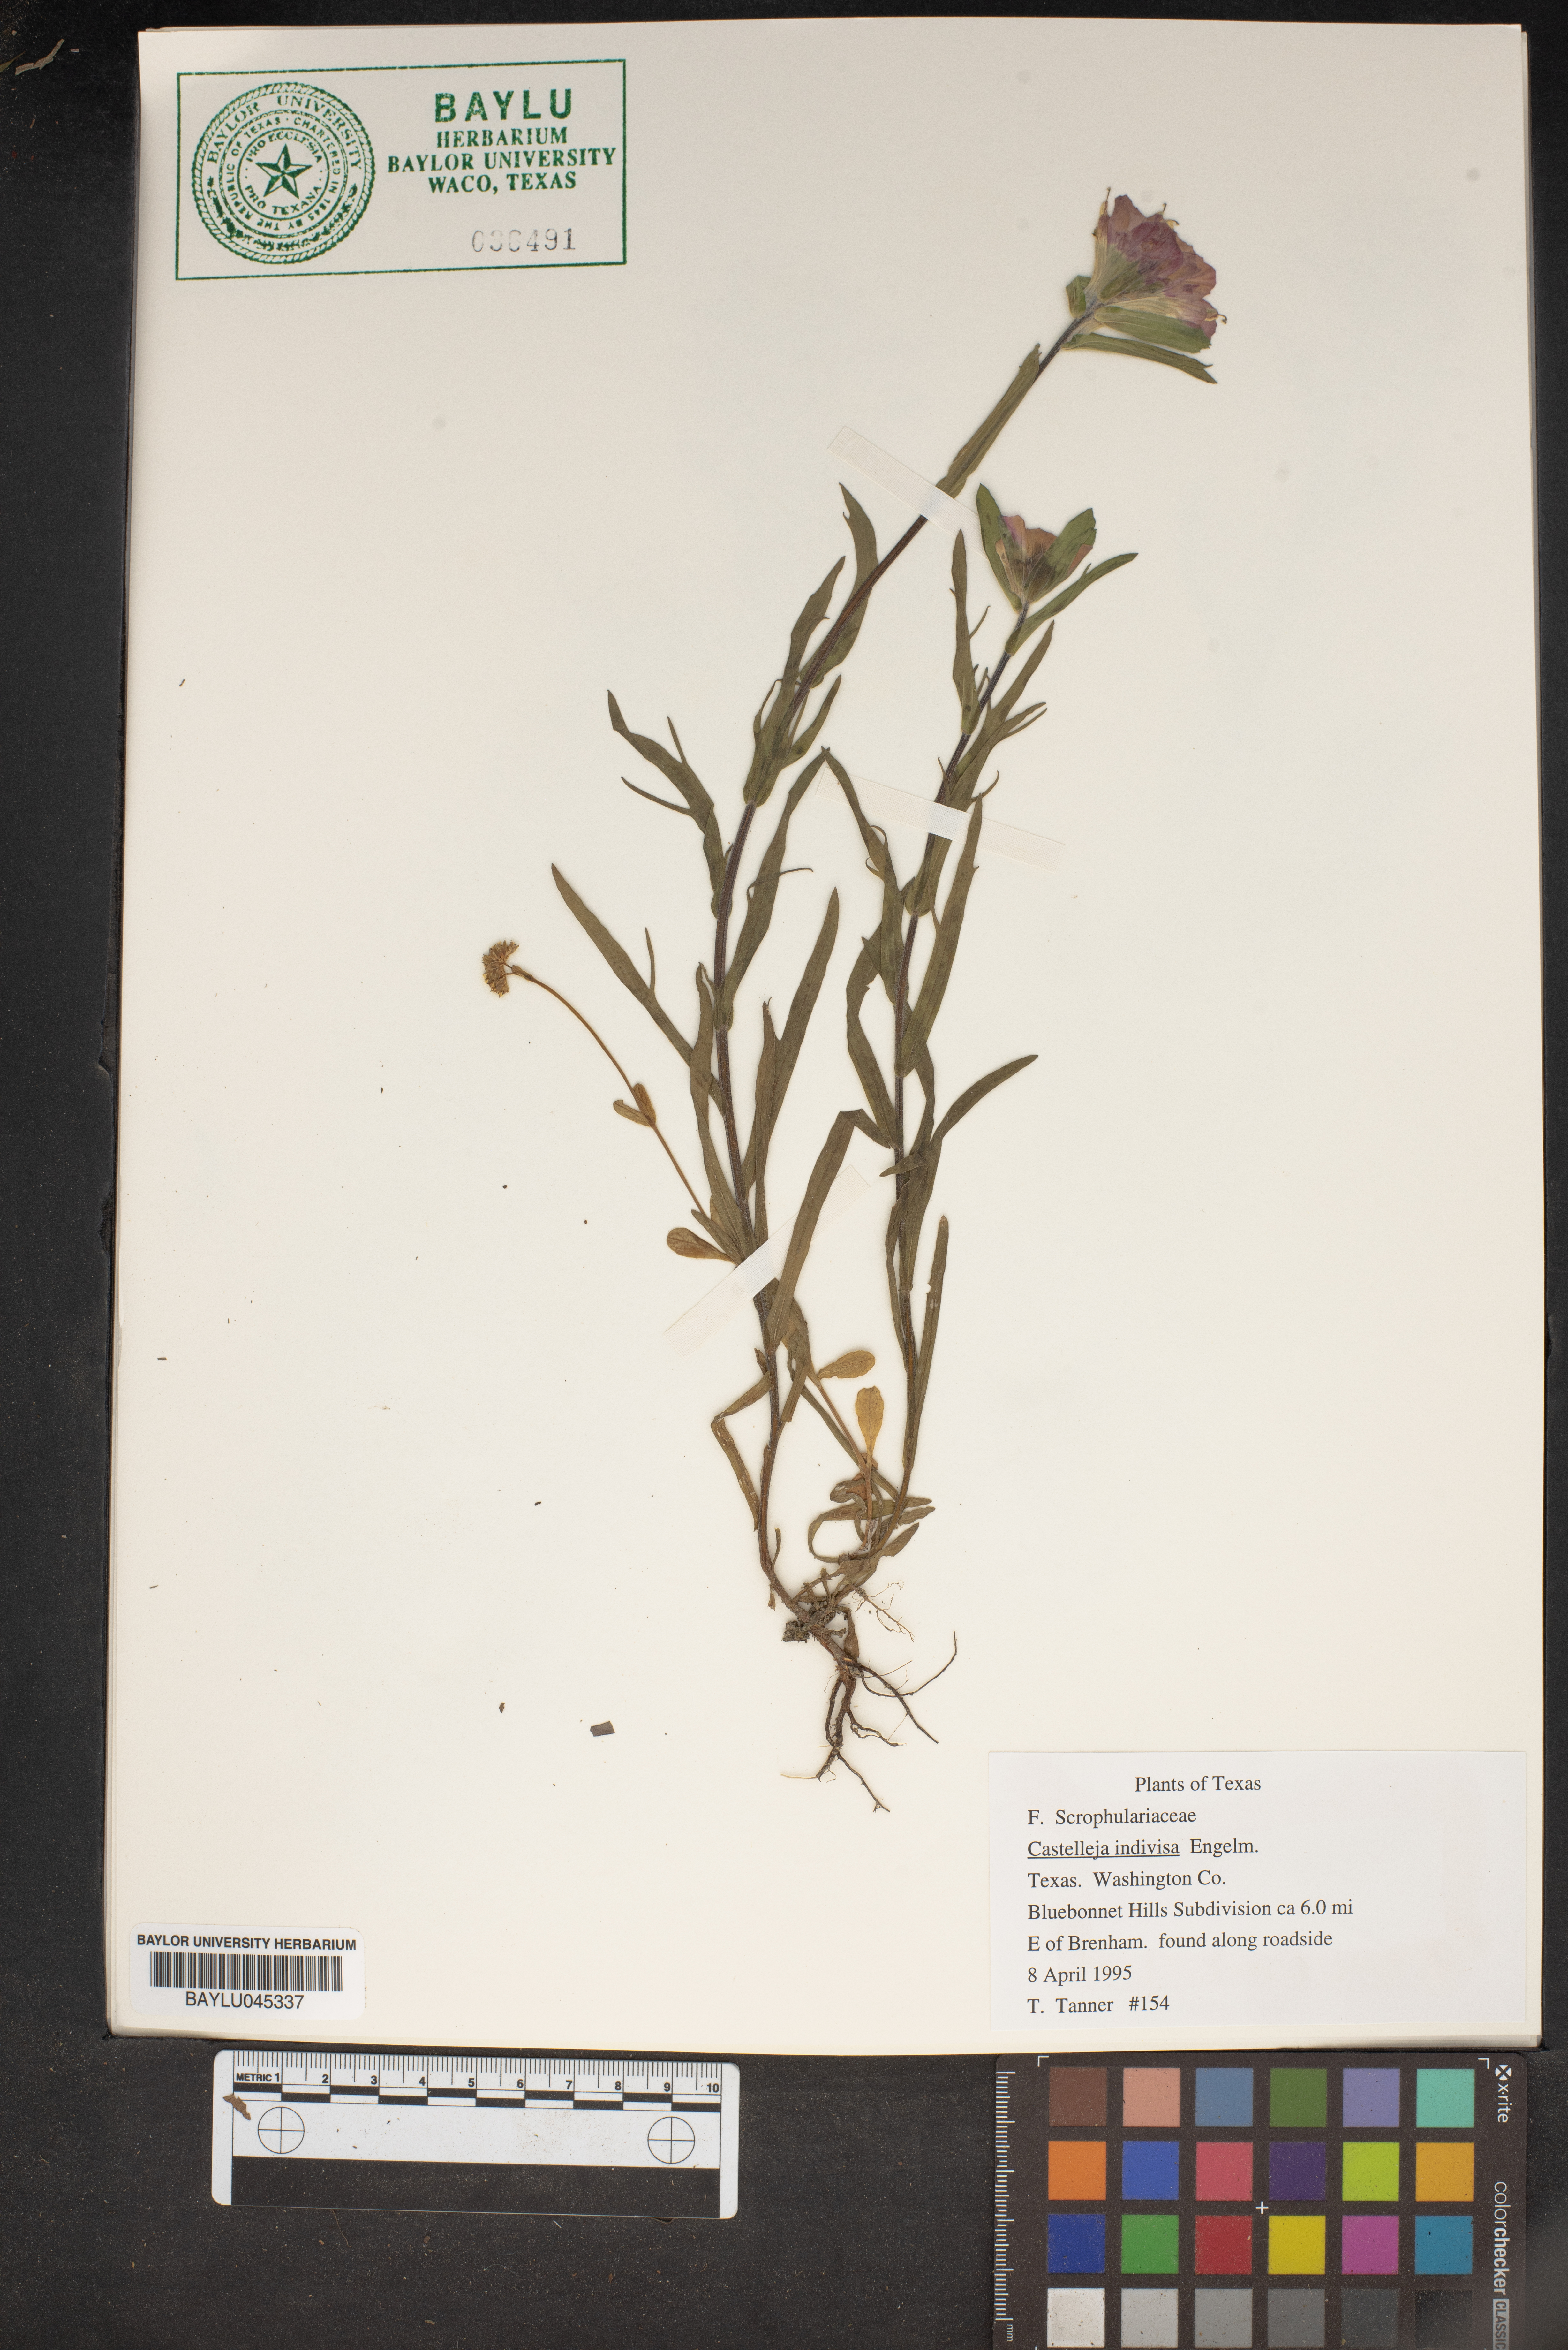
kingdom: Plantae
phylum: Tracheophyta
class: Magnoliopsida
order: Lamiales
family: Orobanchaceae
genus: Castilleja
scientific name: Castilleja indivisa
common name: Texas paintbrush
